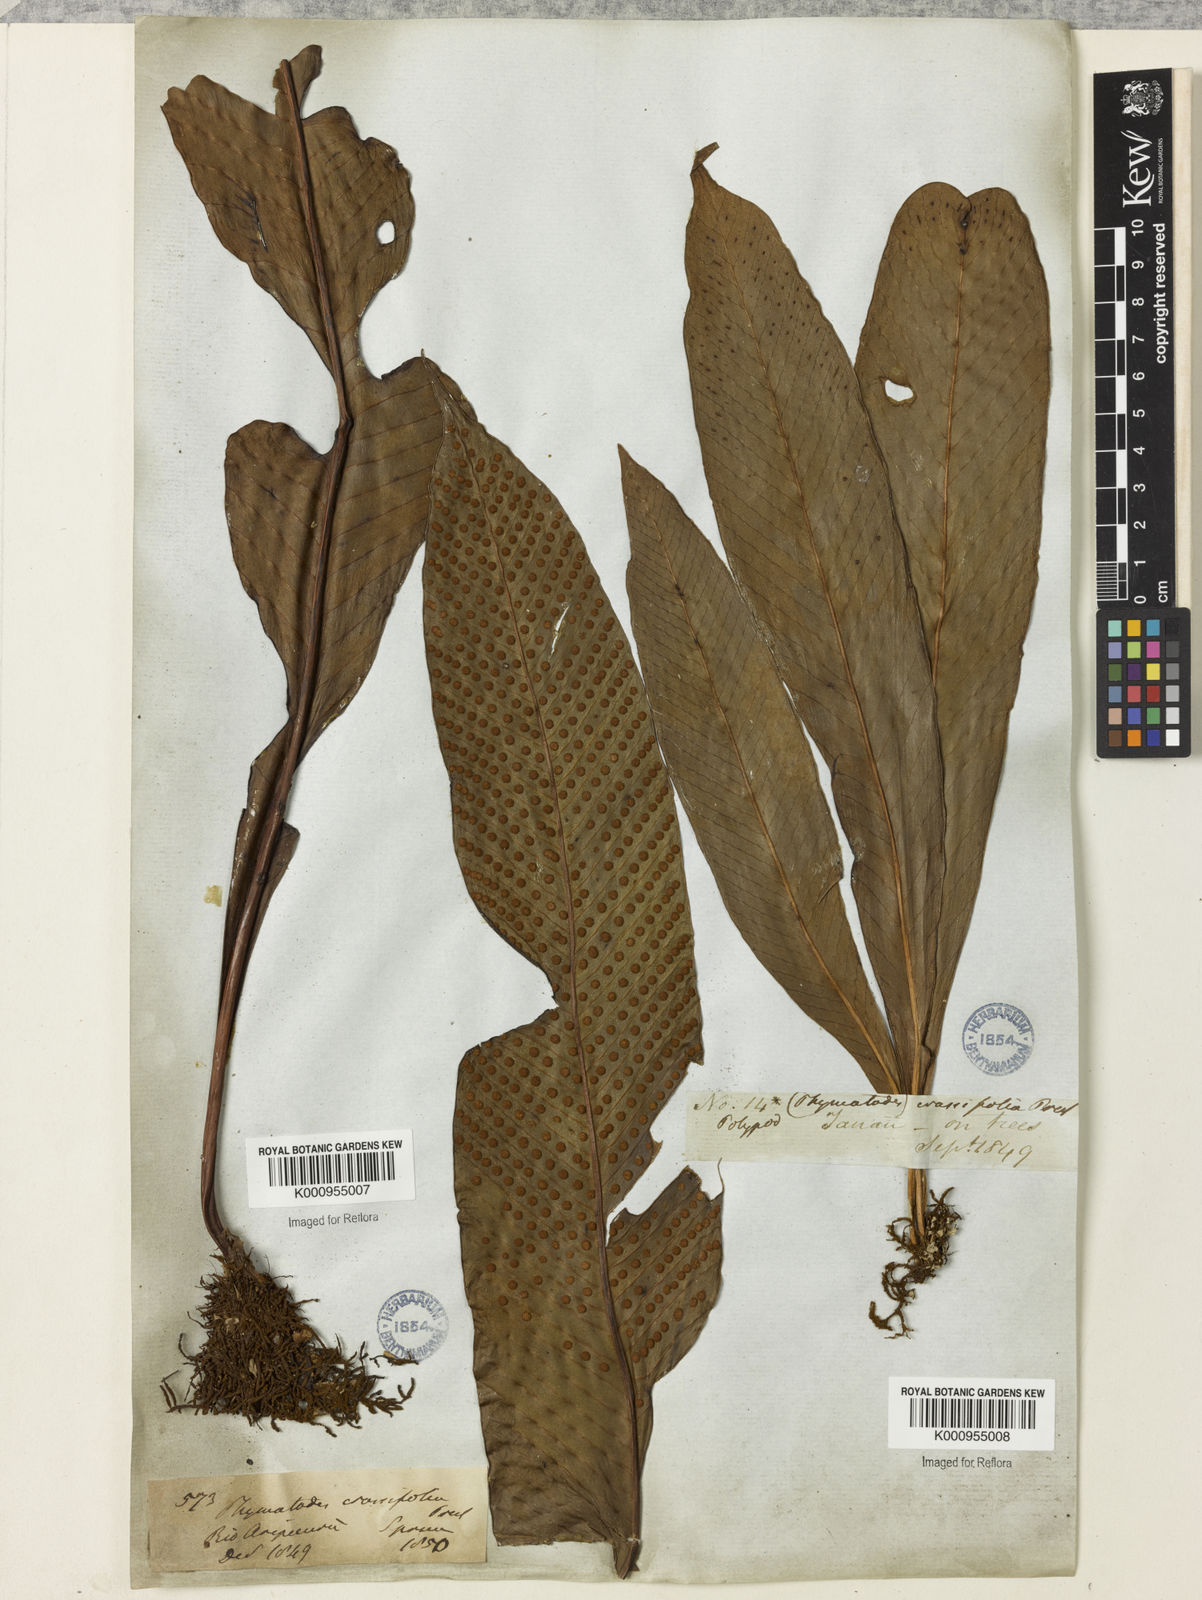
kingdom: Plantae
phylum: Tracheophyta
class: Polypodiopsida
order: Polypodiales
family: Polypodiaceae
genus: Niphidium
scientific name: Niphidium crassifolium
